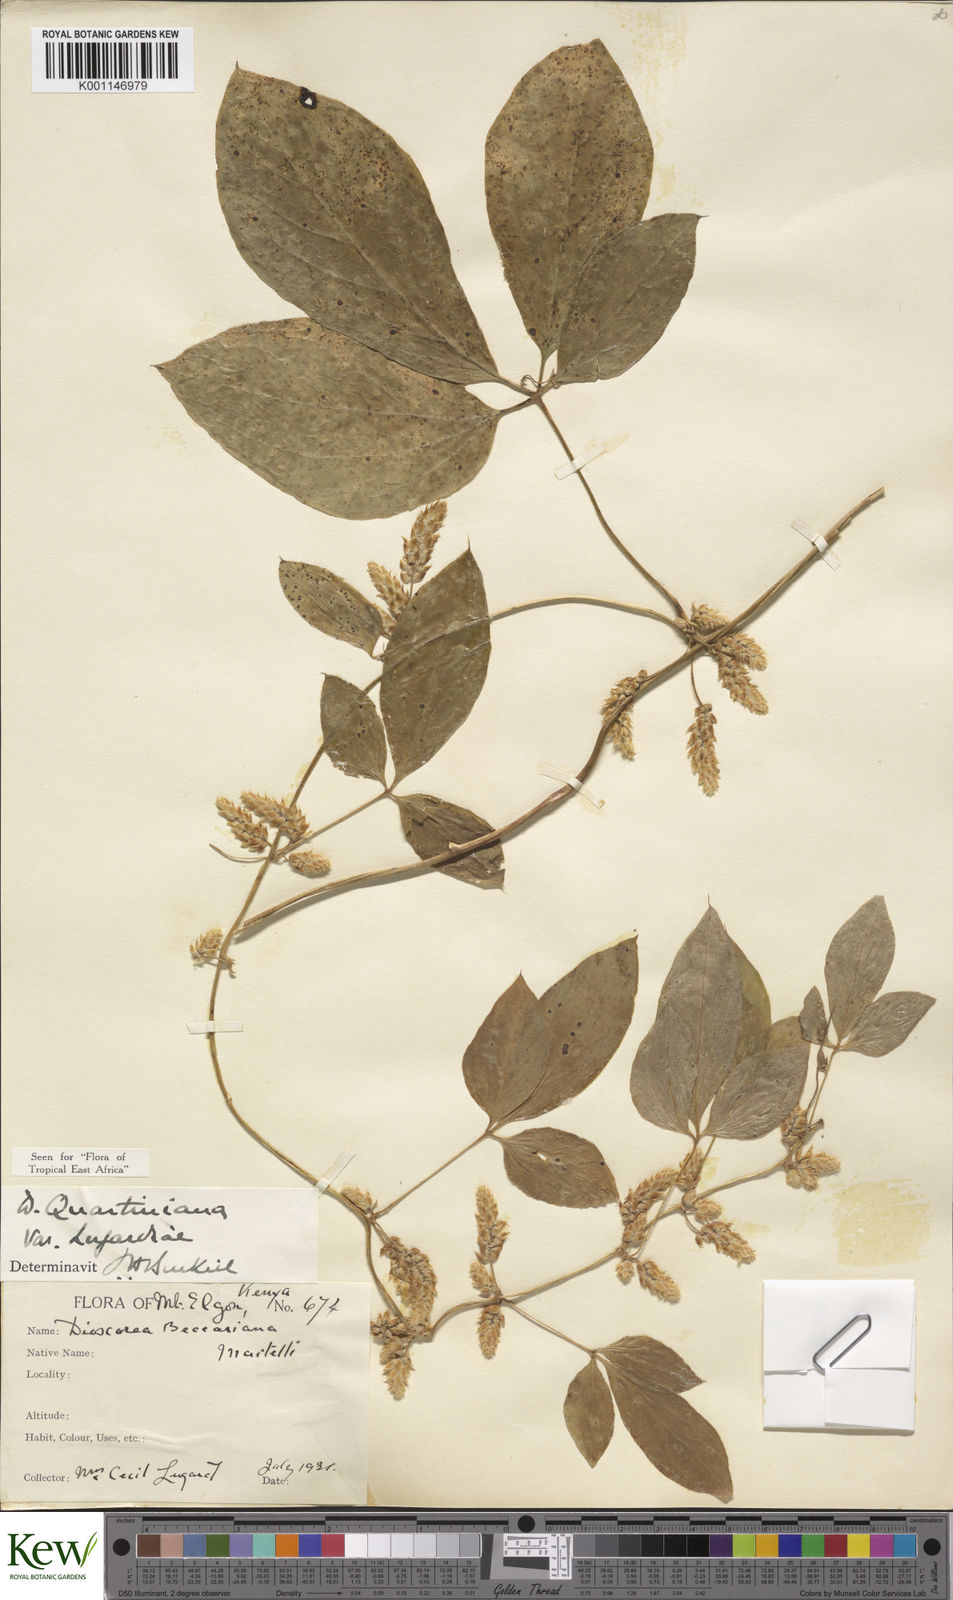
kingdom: Plantae
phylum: Tracheophyta
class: Liliopsida
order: Dioscoreales
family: Dioscoreaceae
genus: Dioscorea
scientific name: Dioscorea quartiniana
